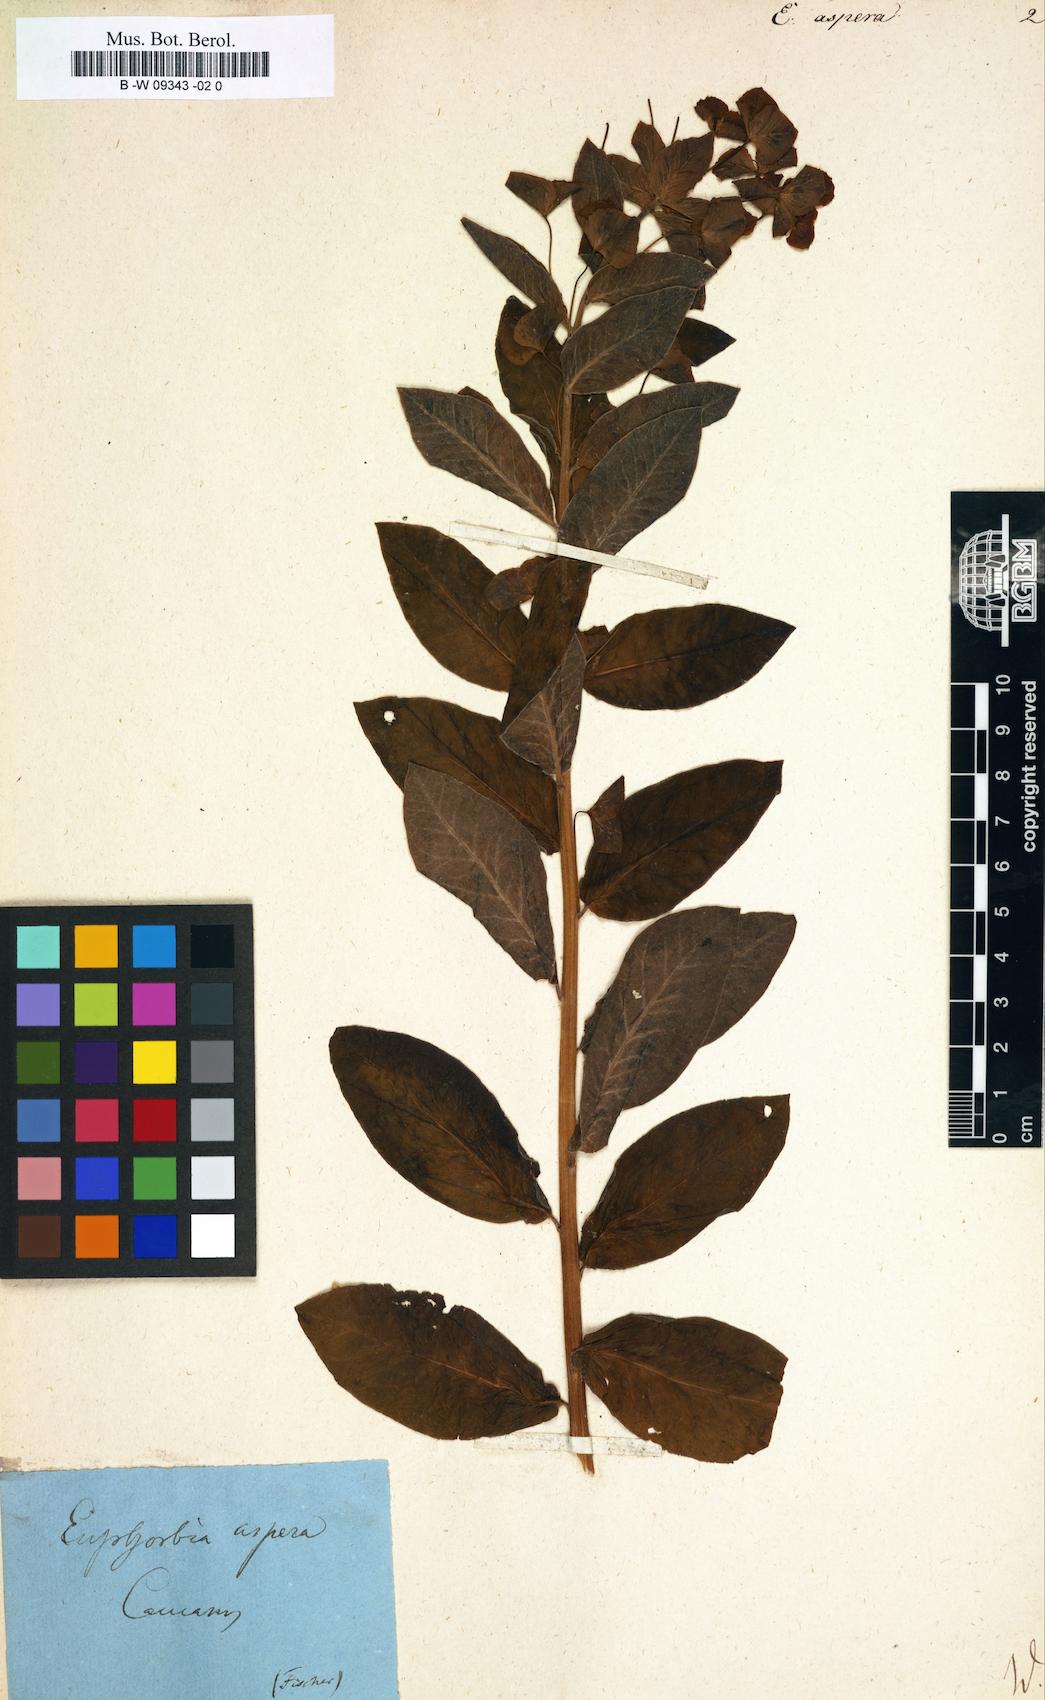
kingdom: Plantae
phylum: Tracheophyta
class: Magnoliopsida
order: Malpighiales
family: Euphorbiaceae
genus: Euphorbia
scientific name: Euphorbia squamosa
